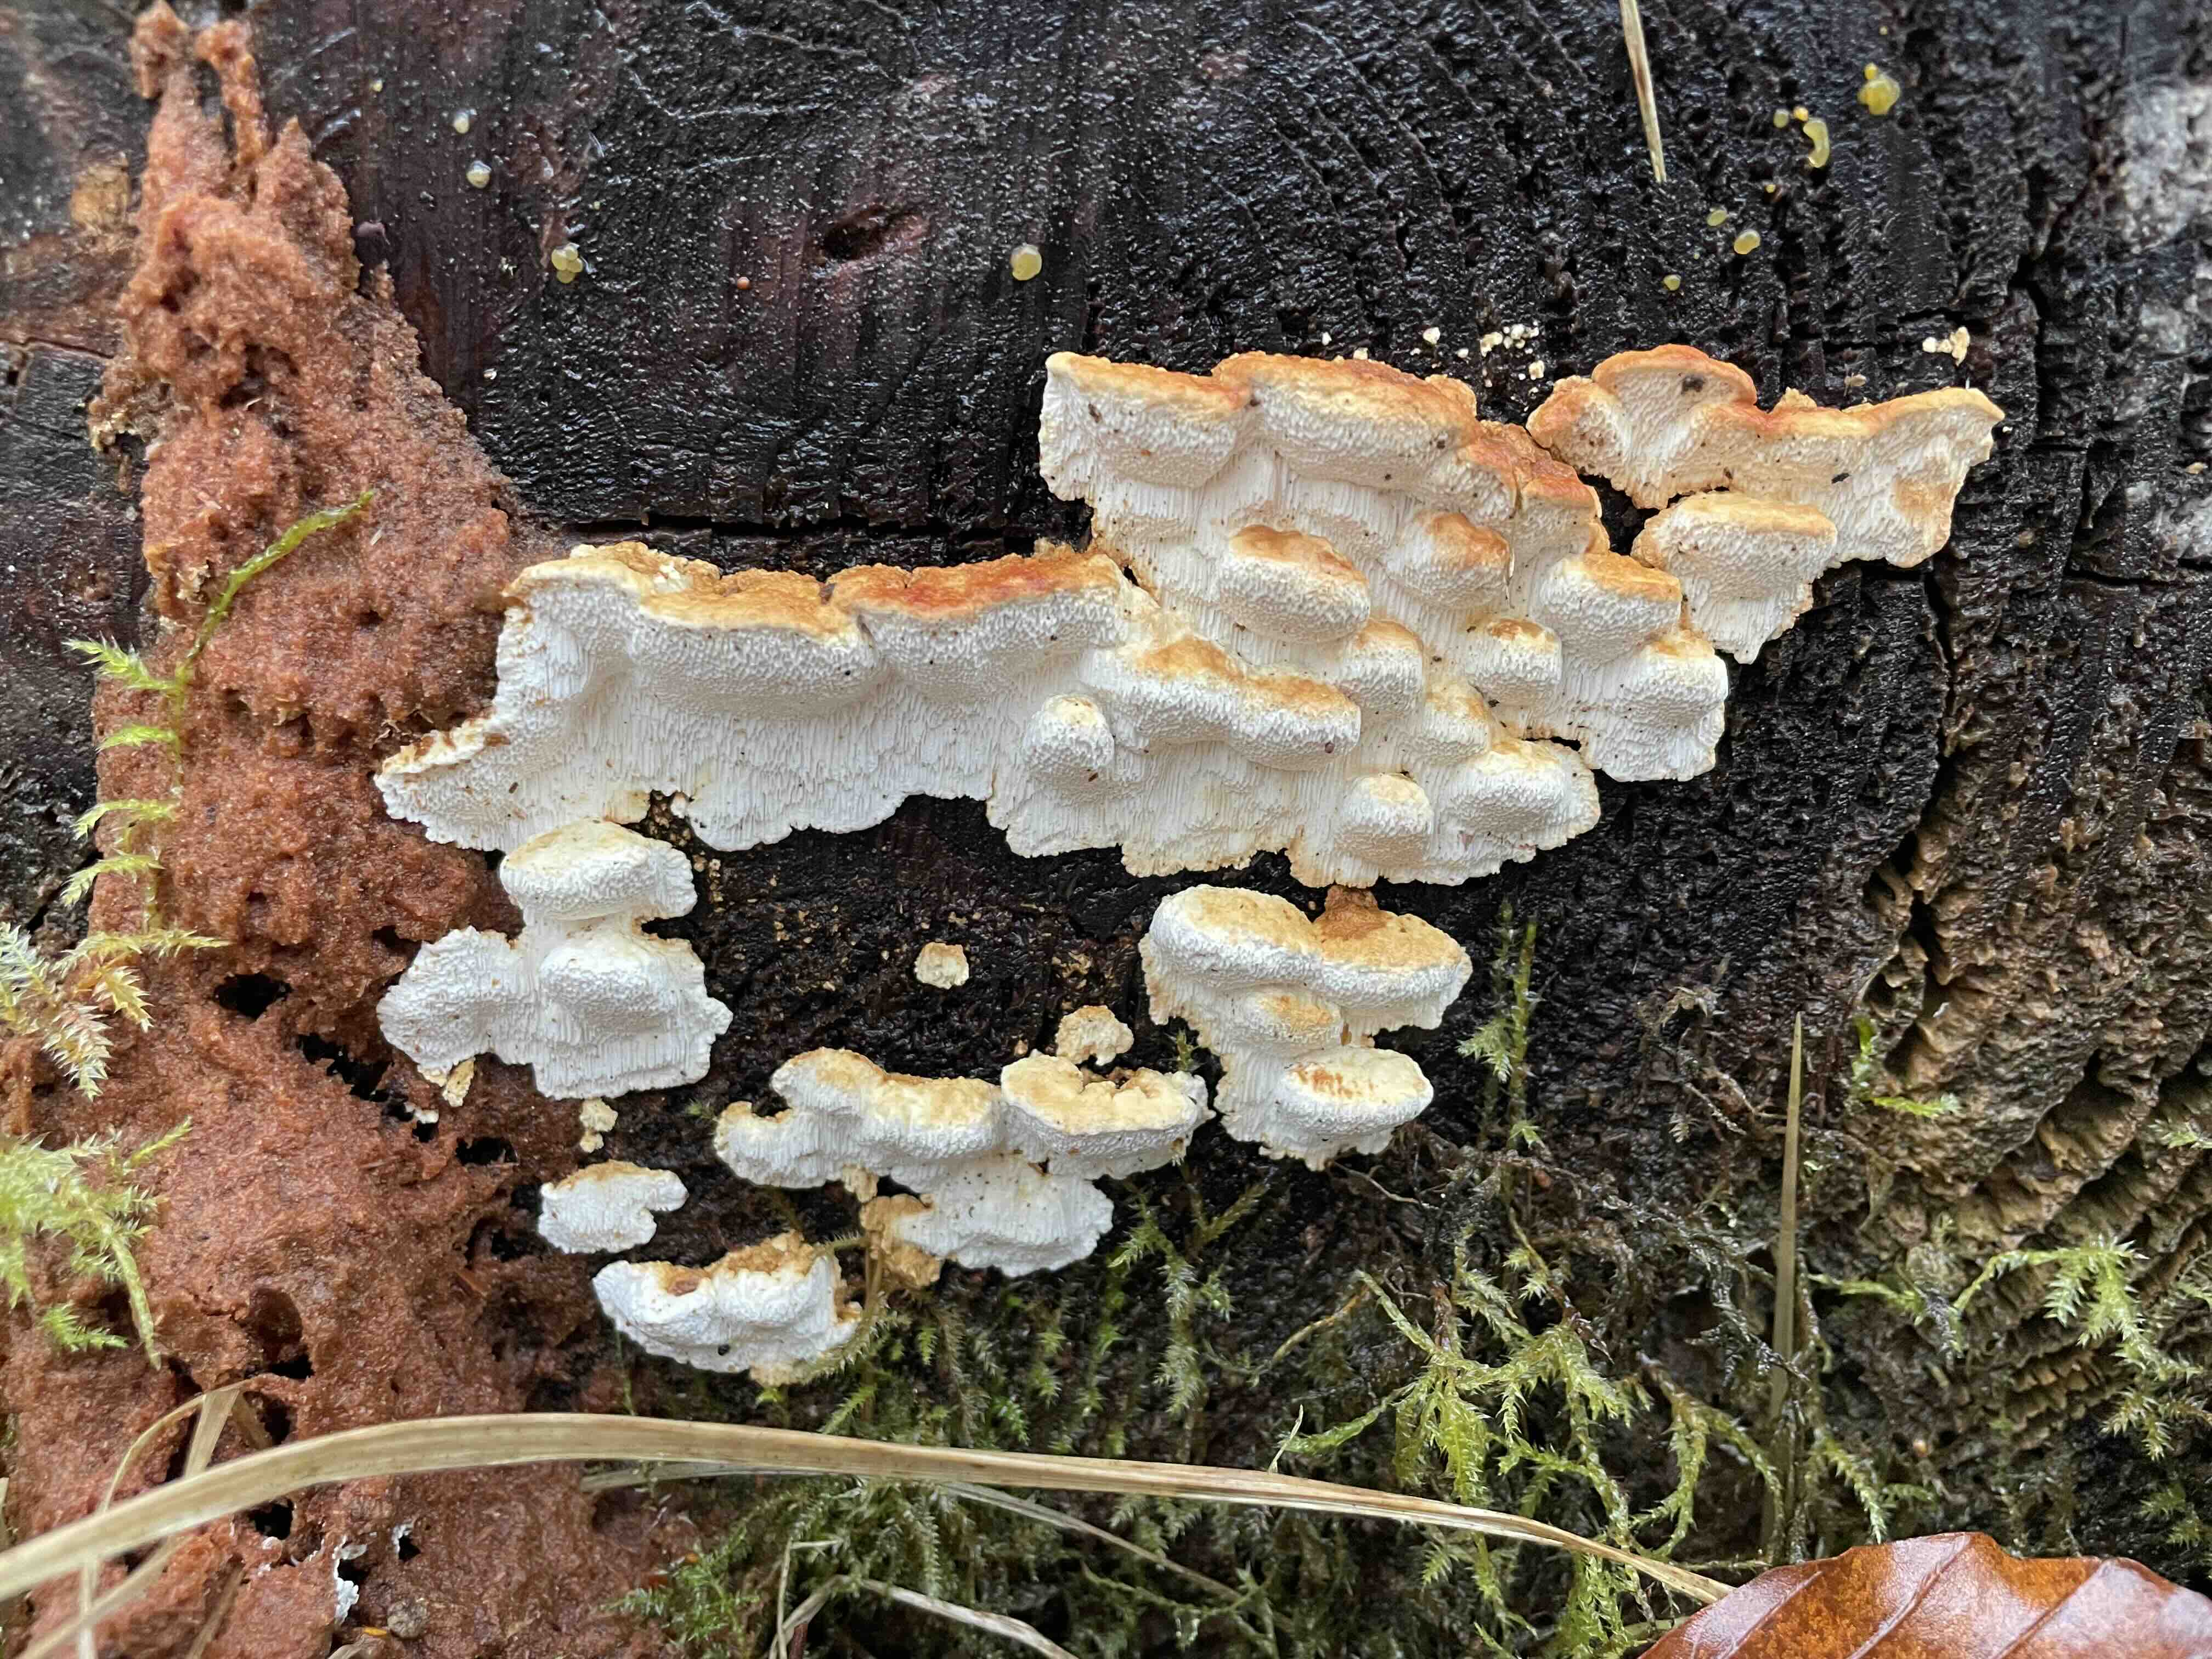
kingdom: Fungi
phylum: Basidiomycota
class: Agaricomycetes
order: Polyporales
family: Fomitopsidaceae
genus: Neoantrodia
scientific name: Neoantrodia serialis
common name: række-sejporesvamp
